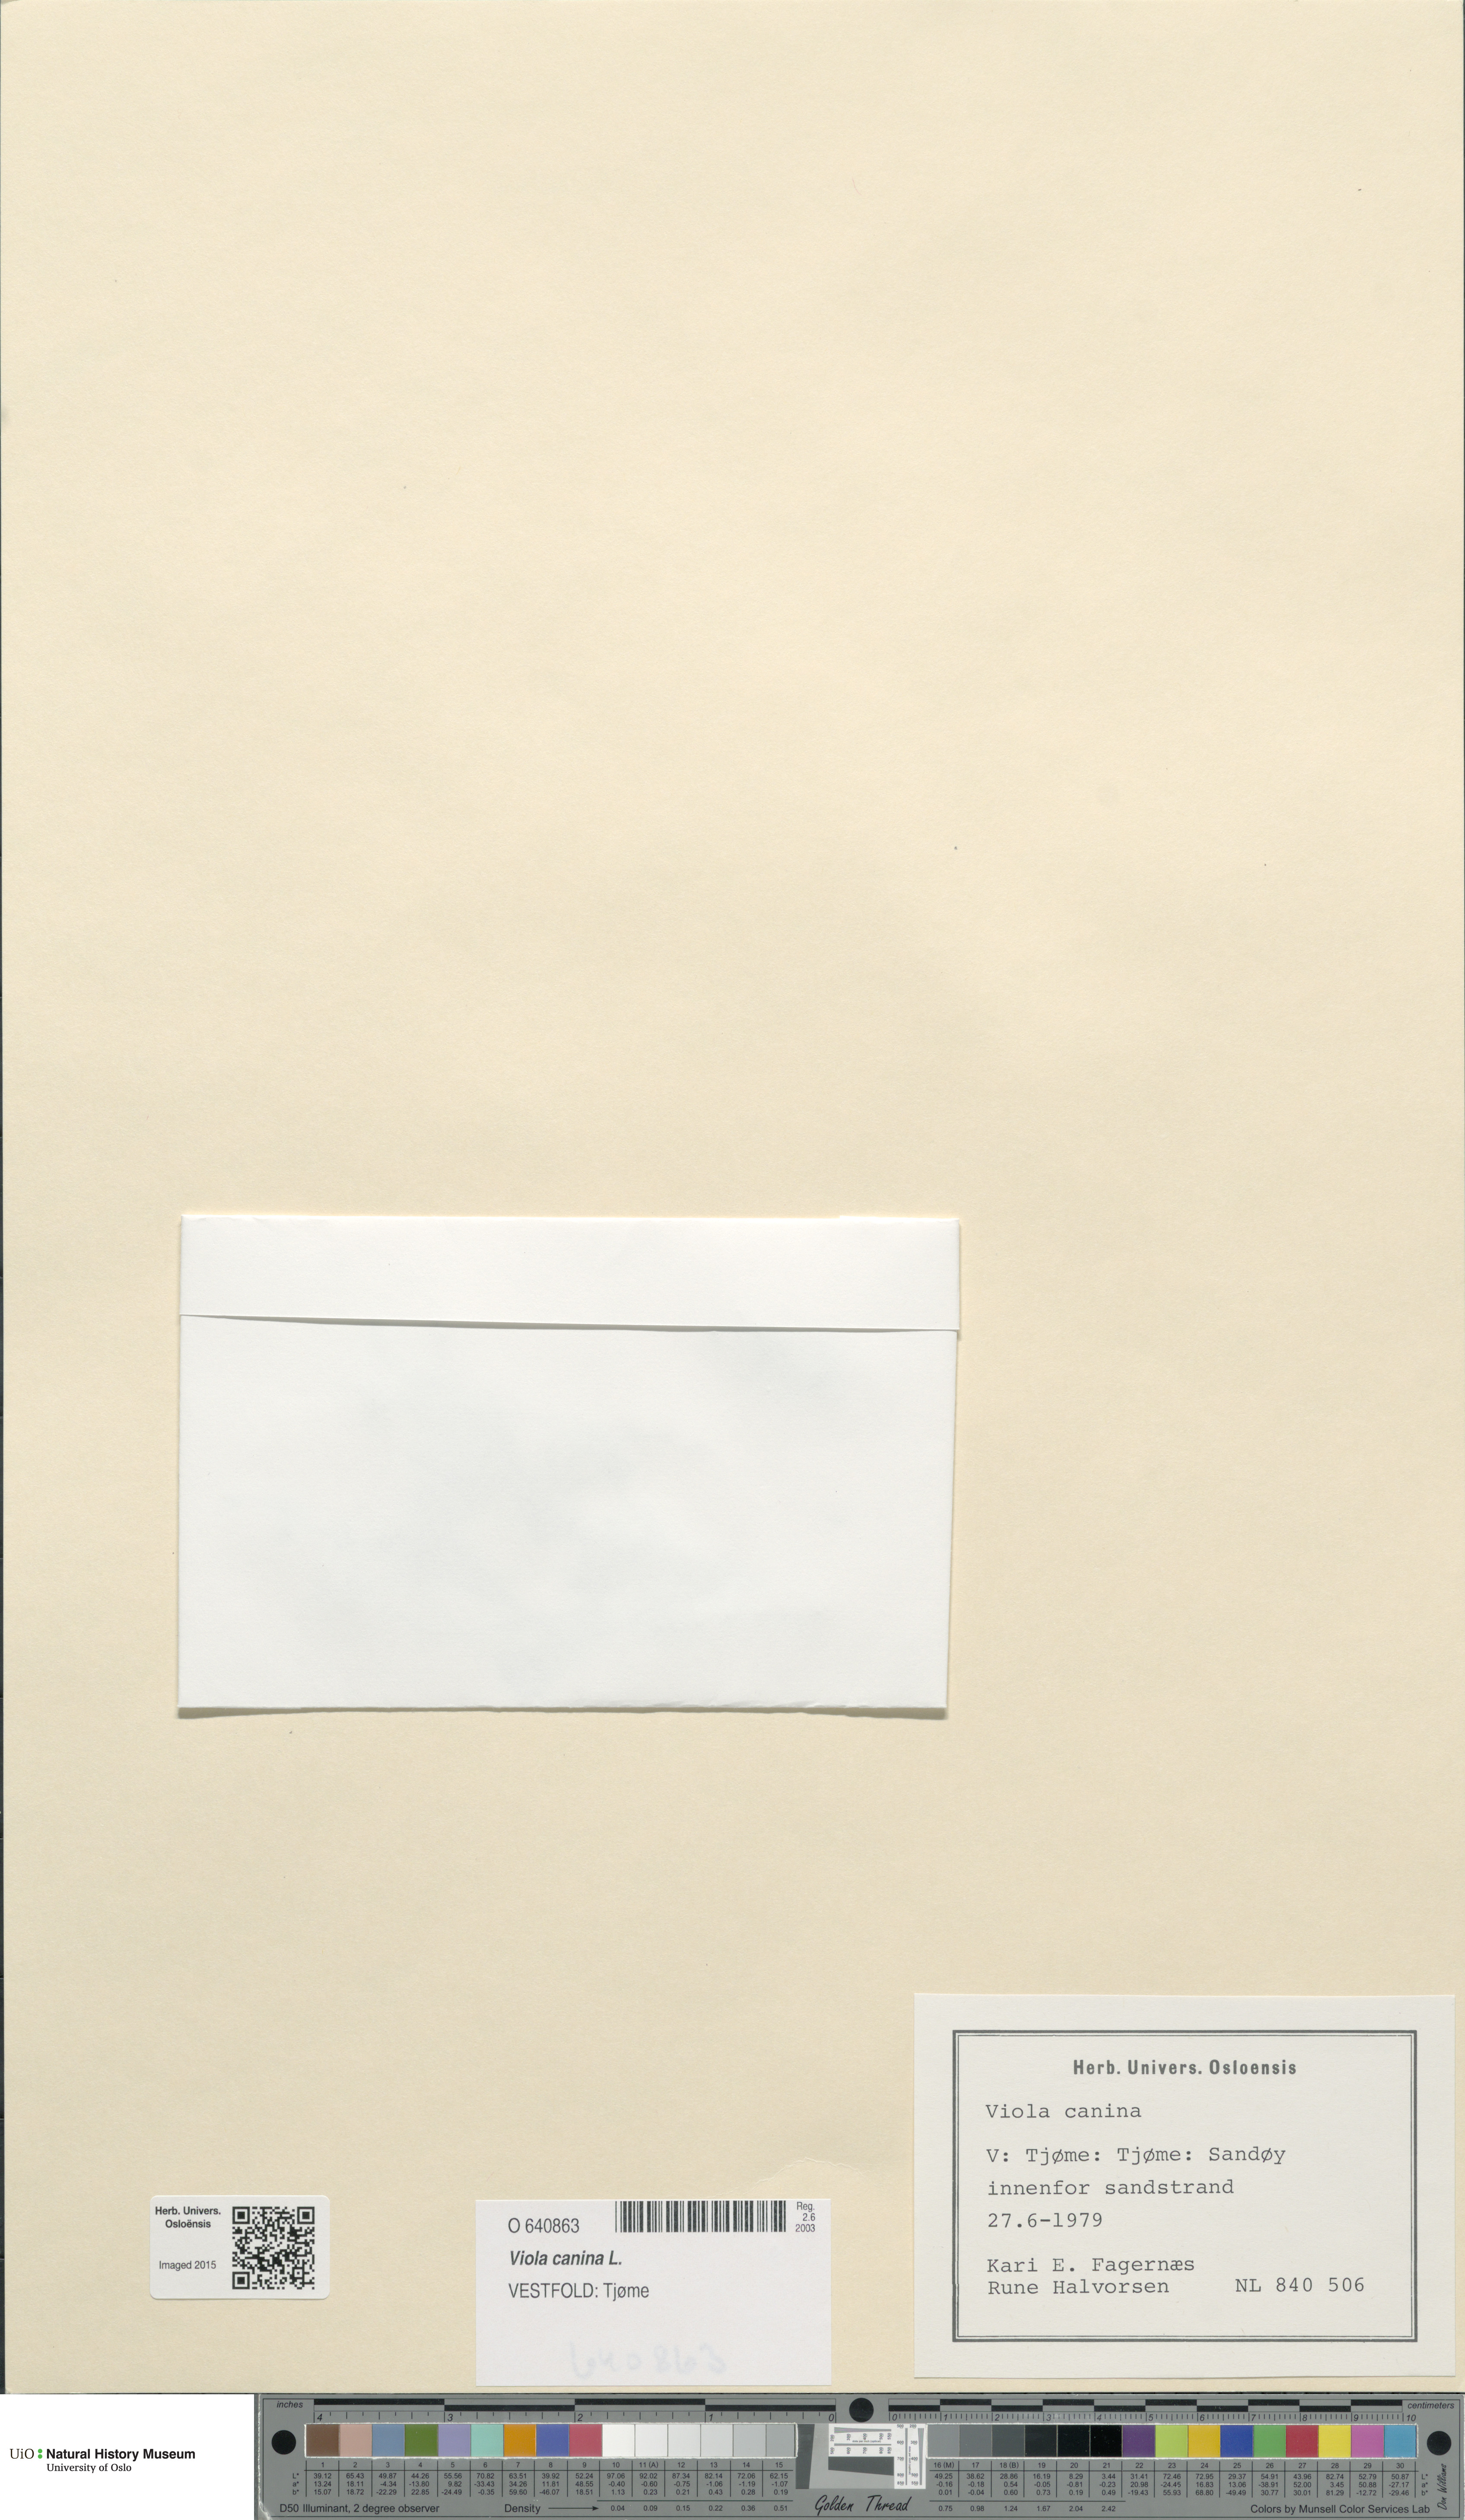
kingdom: Plantae
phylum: Tracheophyta
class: Magnoliopsida
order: Malpighiales
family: Violaceae
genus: Viola
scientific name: Viola canina
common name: Heath dog-violet
